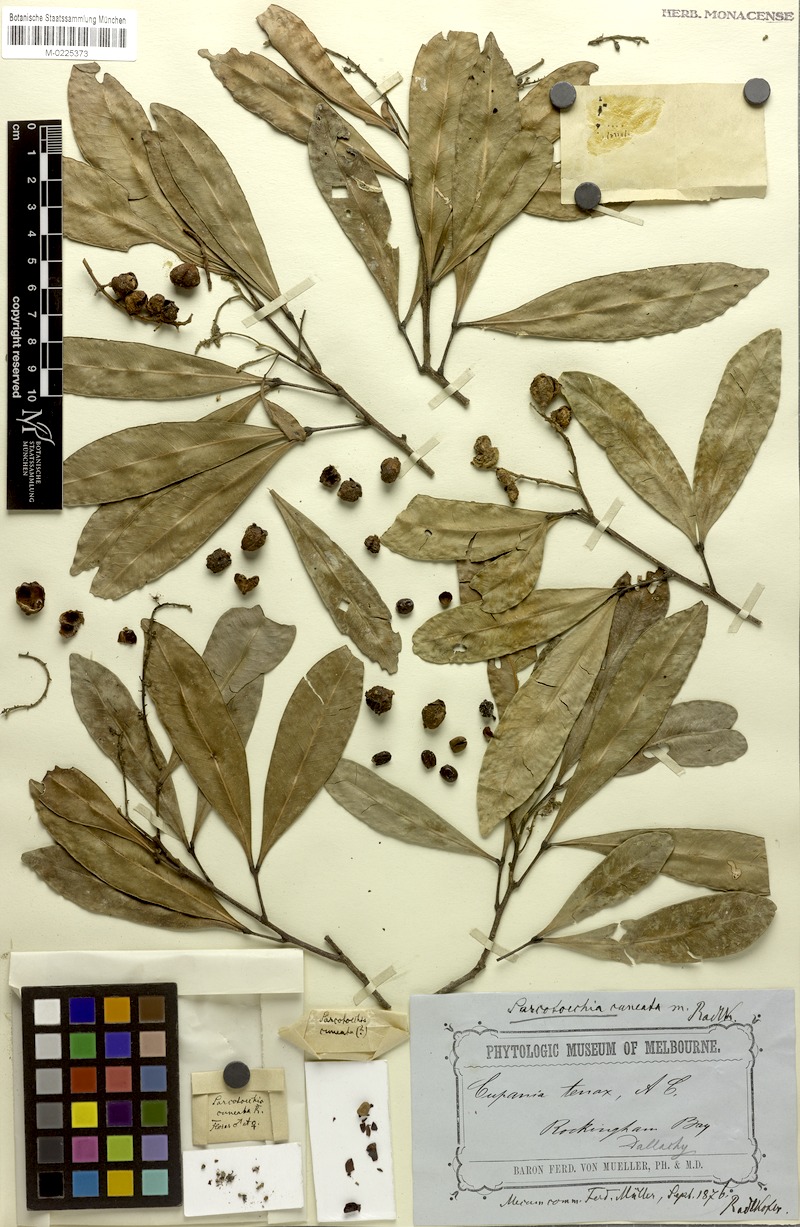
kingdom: Plantae
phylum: Tracheophyta
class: Magnoliopsida
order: Sapindales
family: Sapindaceae
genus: Sarcotoechia
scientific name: Sarcotoechia cuneata
